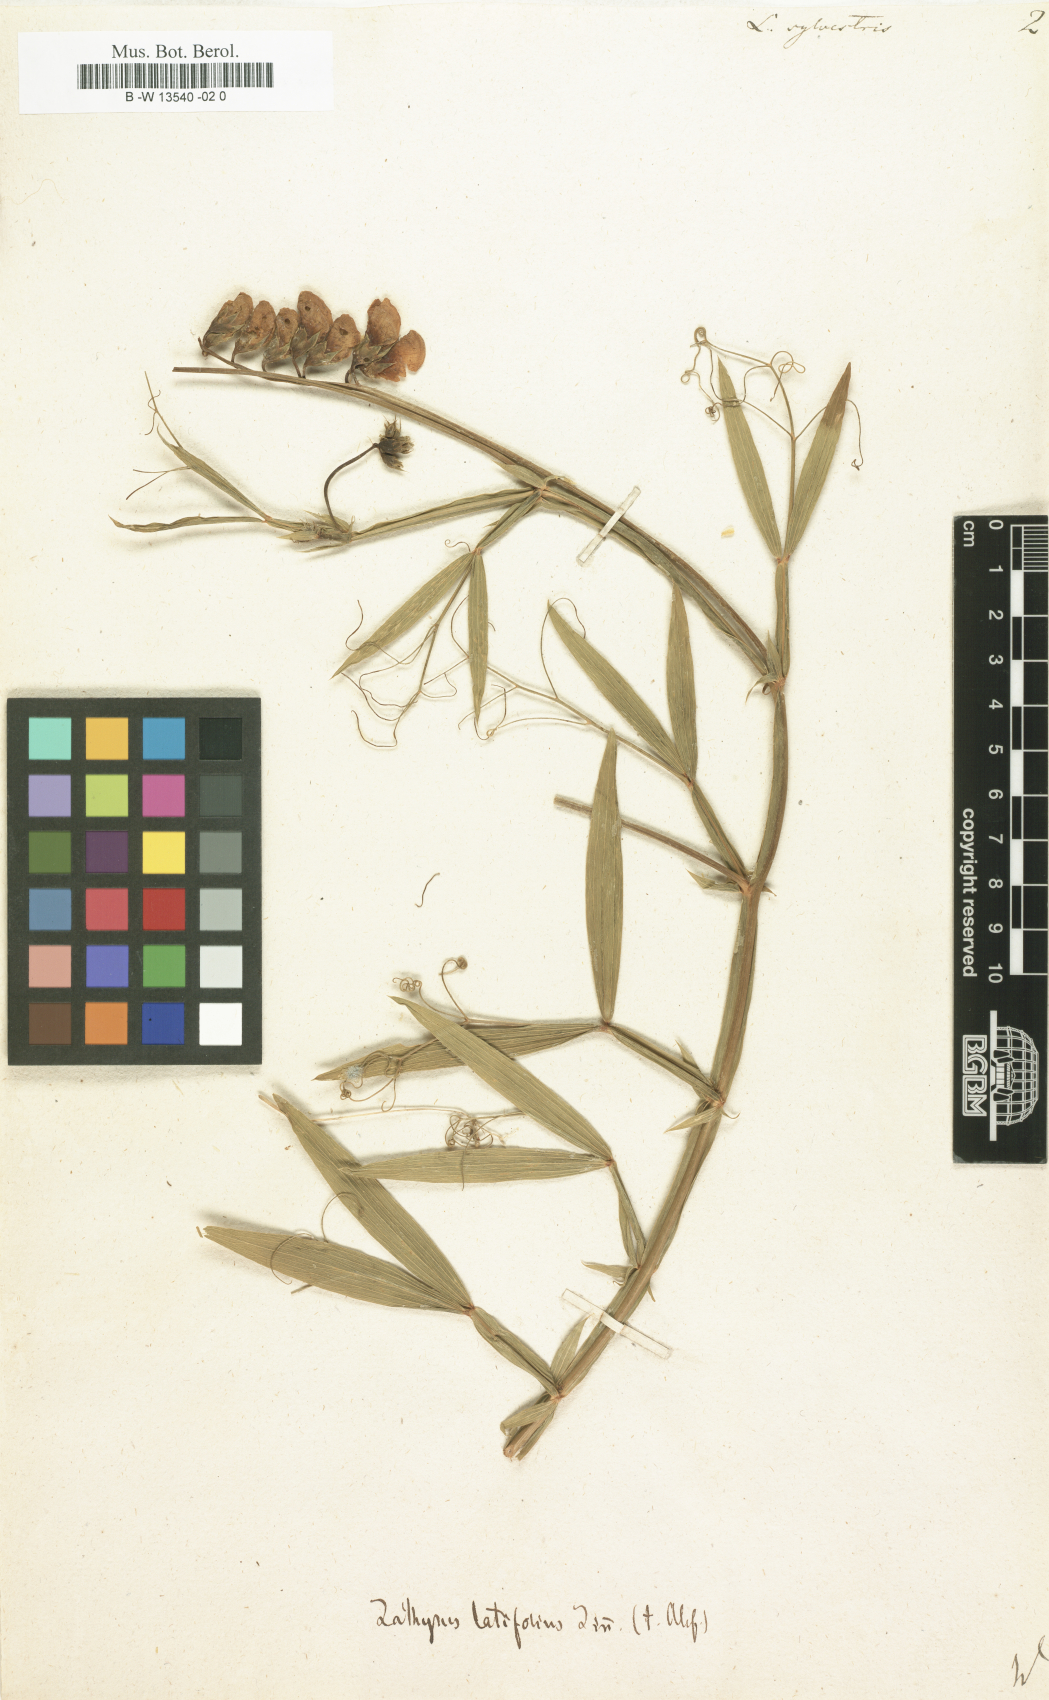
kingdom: Plantae
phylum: Tracheophyta
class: Magnoliopsida
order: Fabales
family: Fabaceae
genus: Lathyrus
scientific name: Lathyrus sylvestris
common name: Flat pea
